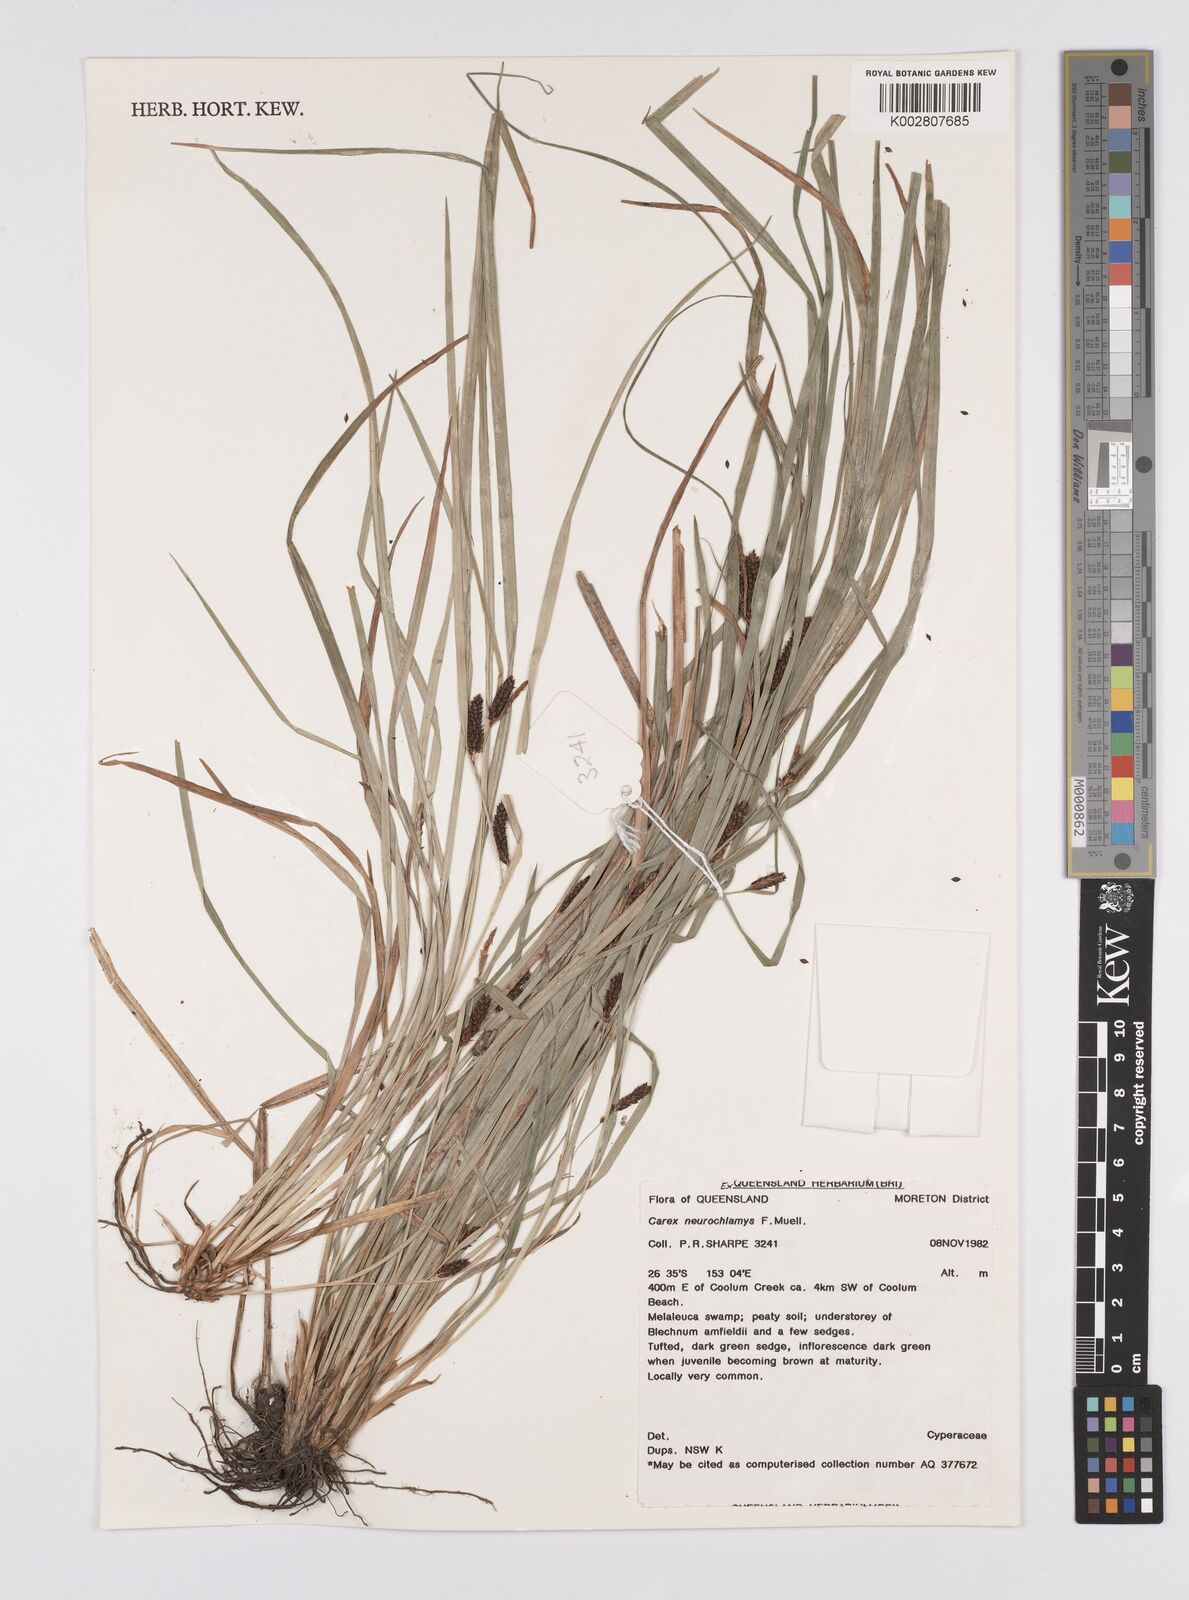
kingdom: Plantae
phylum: Tracheophyta
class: Liliopsida
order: Poales
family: Cyperaceae
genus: Carex
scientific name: Carex maculata
